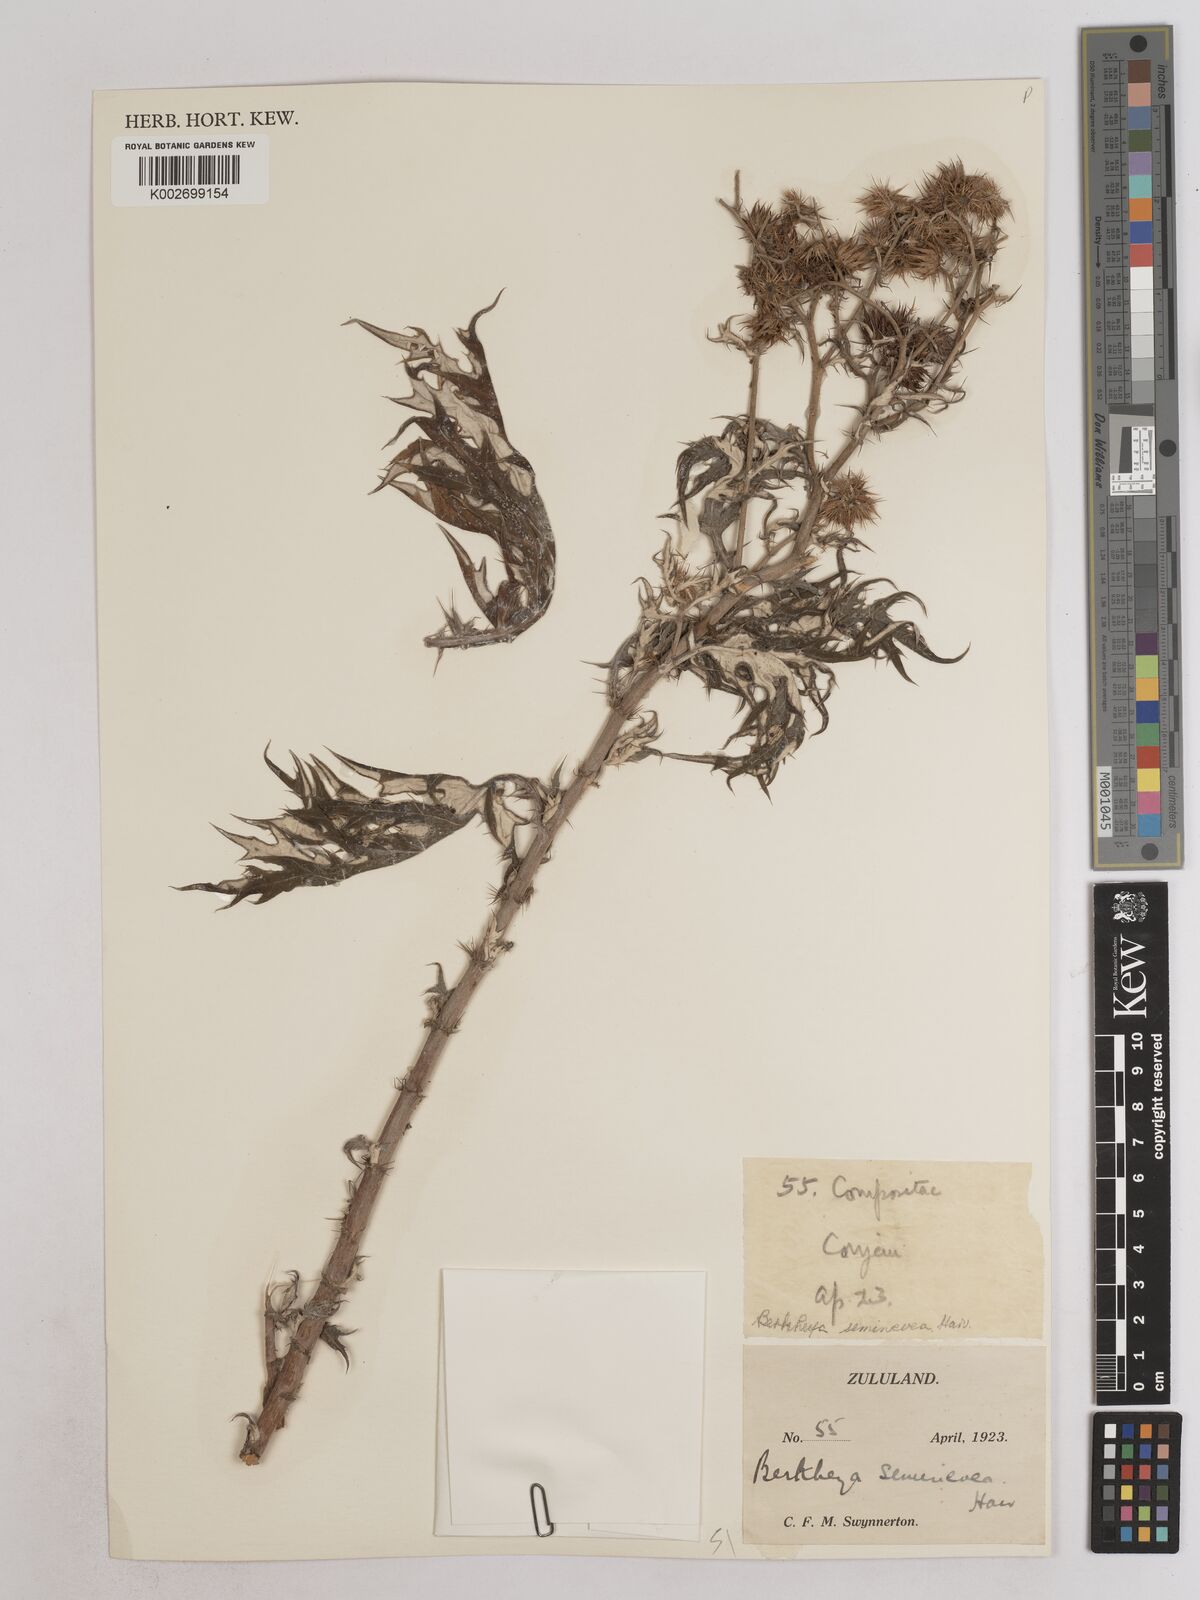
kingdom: Plantae
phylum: Tracheophyta
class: Magnoliopsida
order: Asterales
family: Asteraceae
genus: Berkheya
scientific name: Berkheya seminivea
